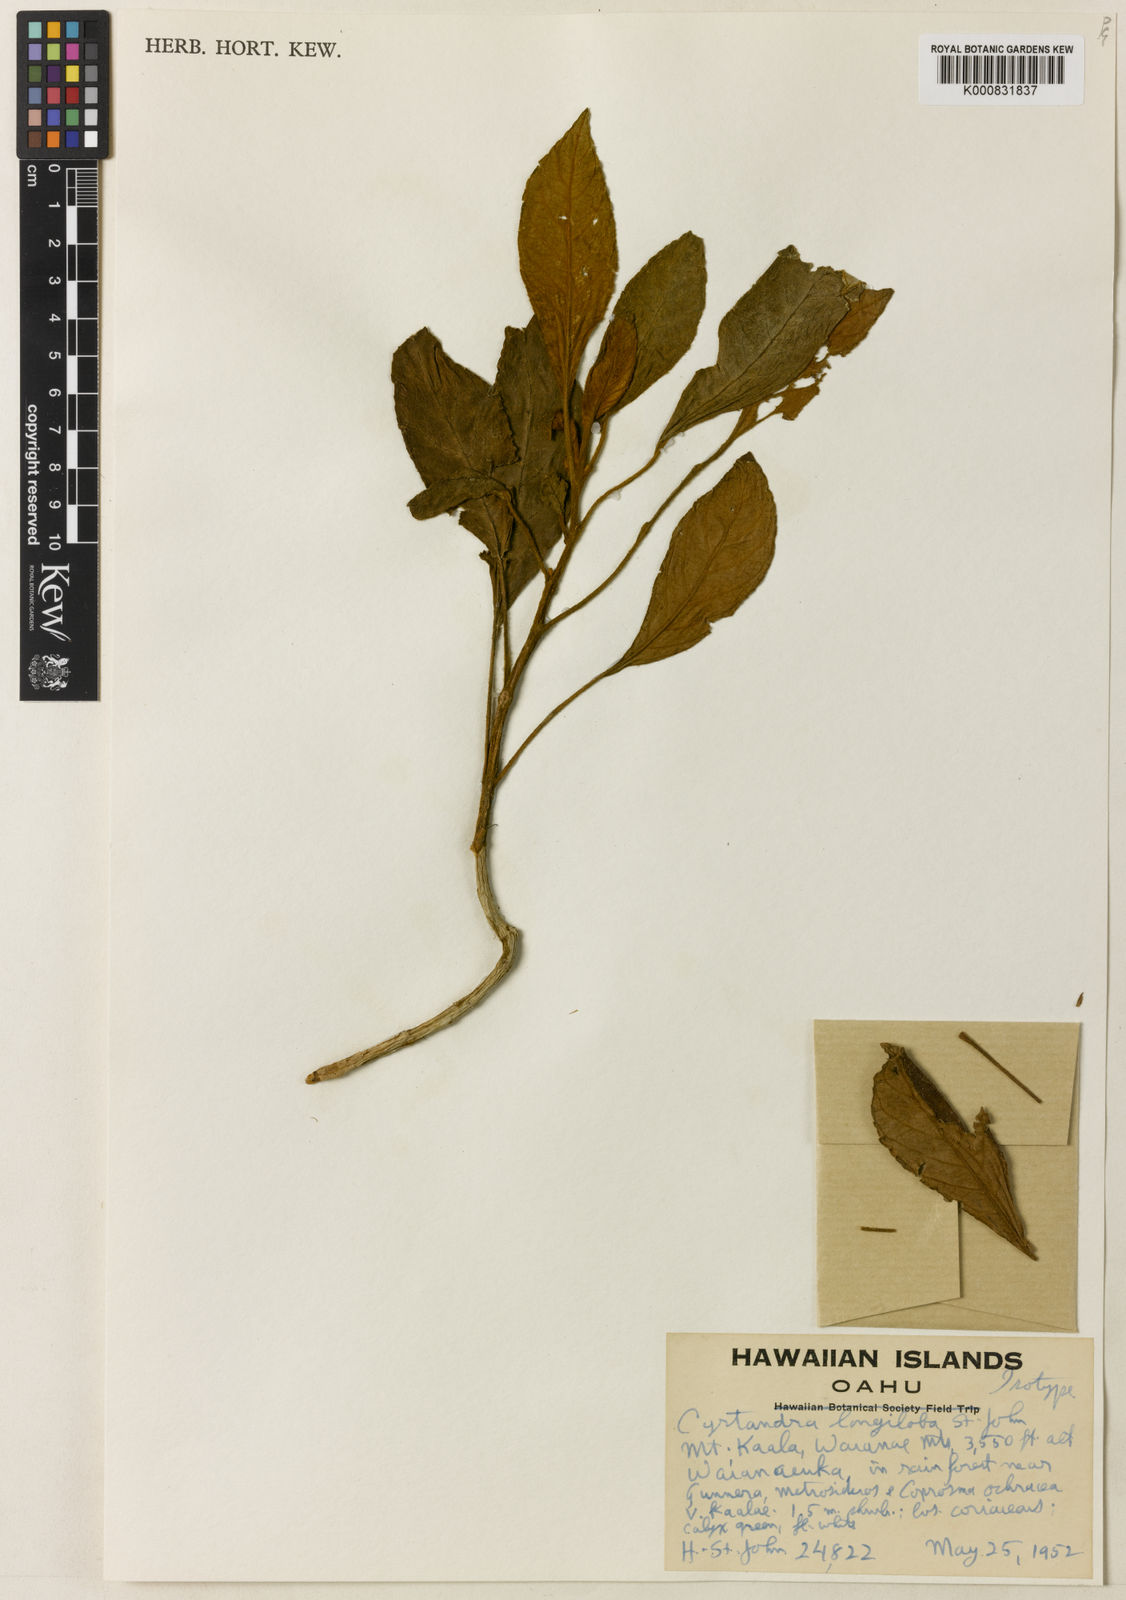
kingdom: Plantae
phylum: Tracheophyta
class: Magnoliopsida
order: Lamiales
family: Gesneriaceae
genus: Cyrtandra
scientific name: Cyrtandra lessoniana
